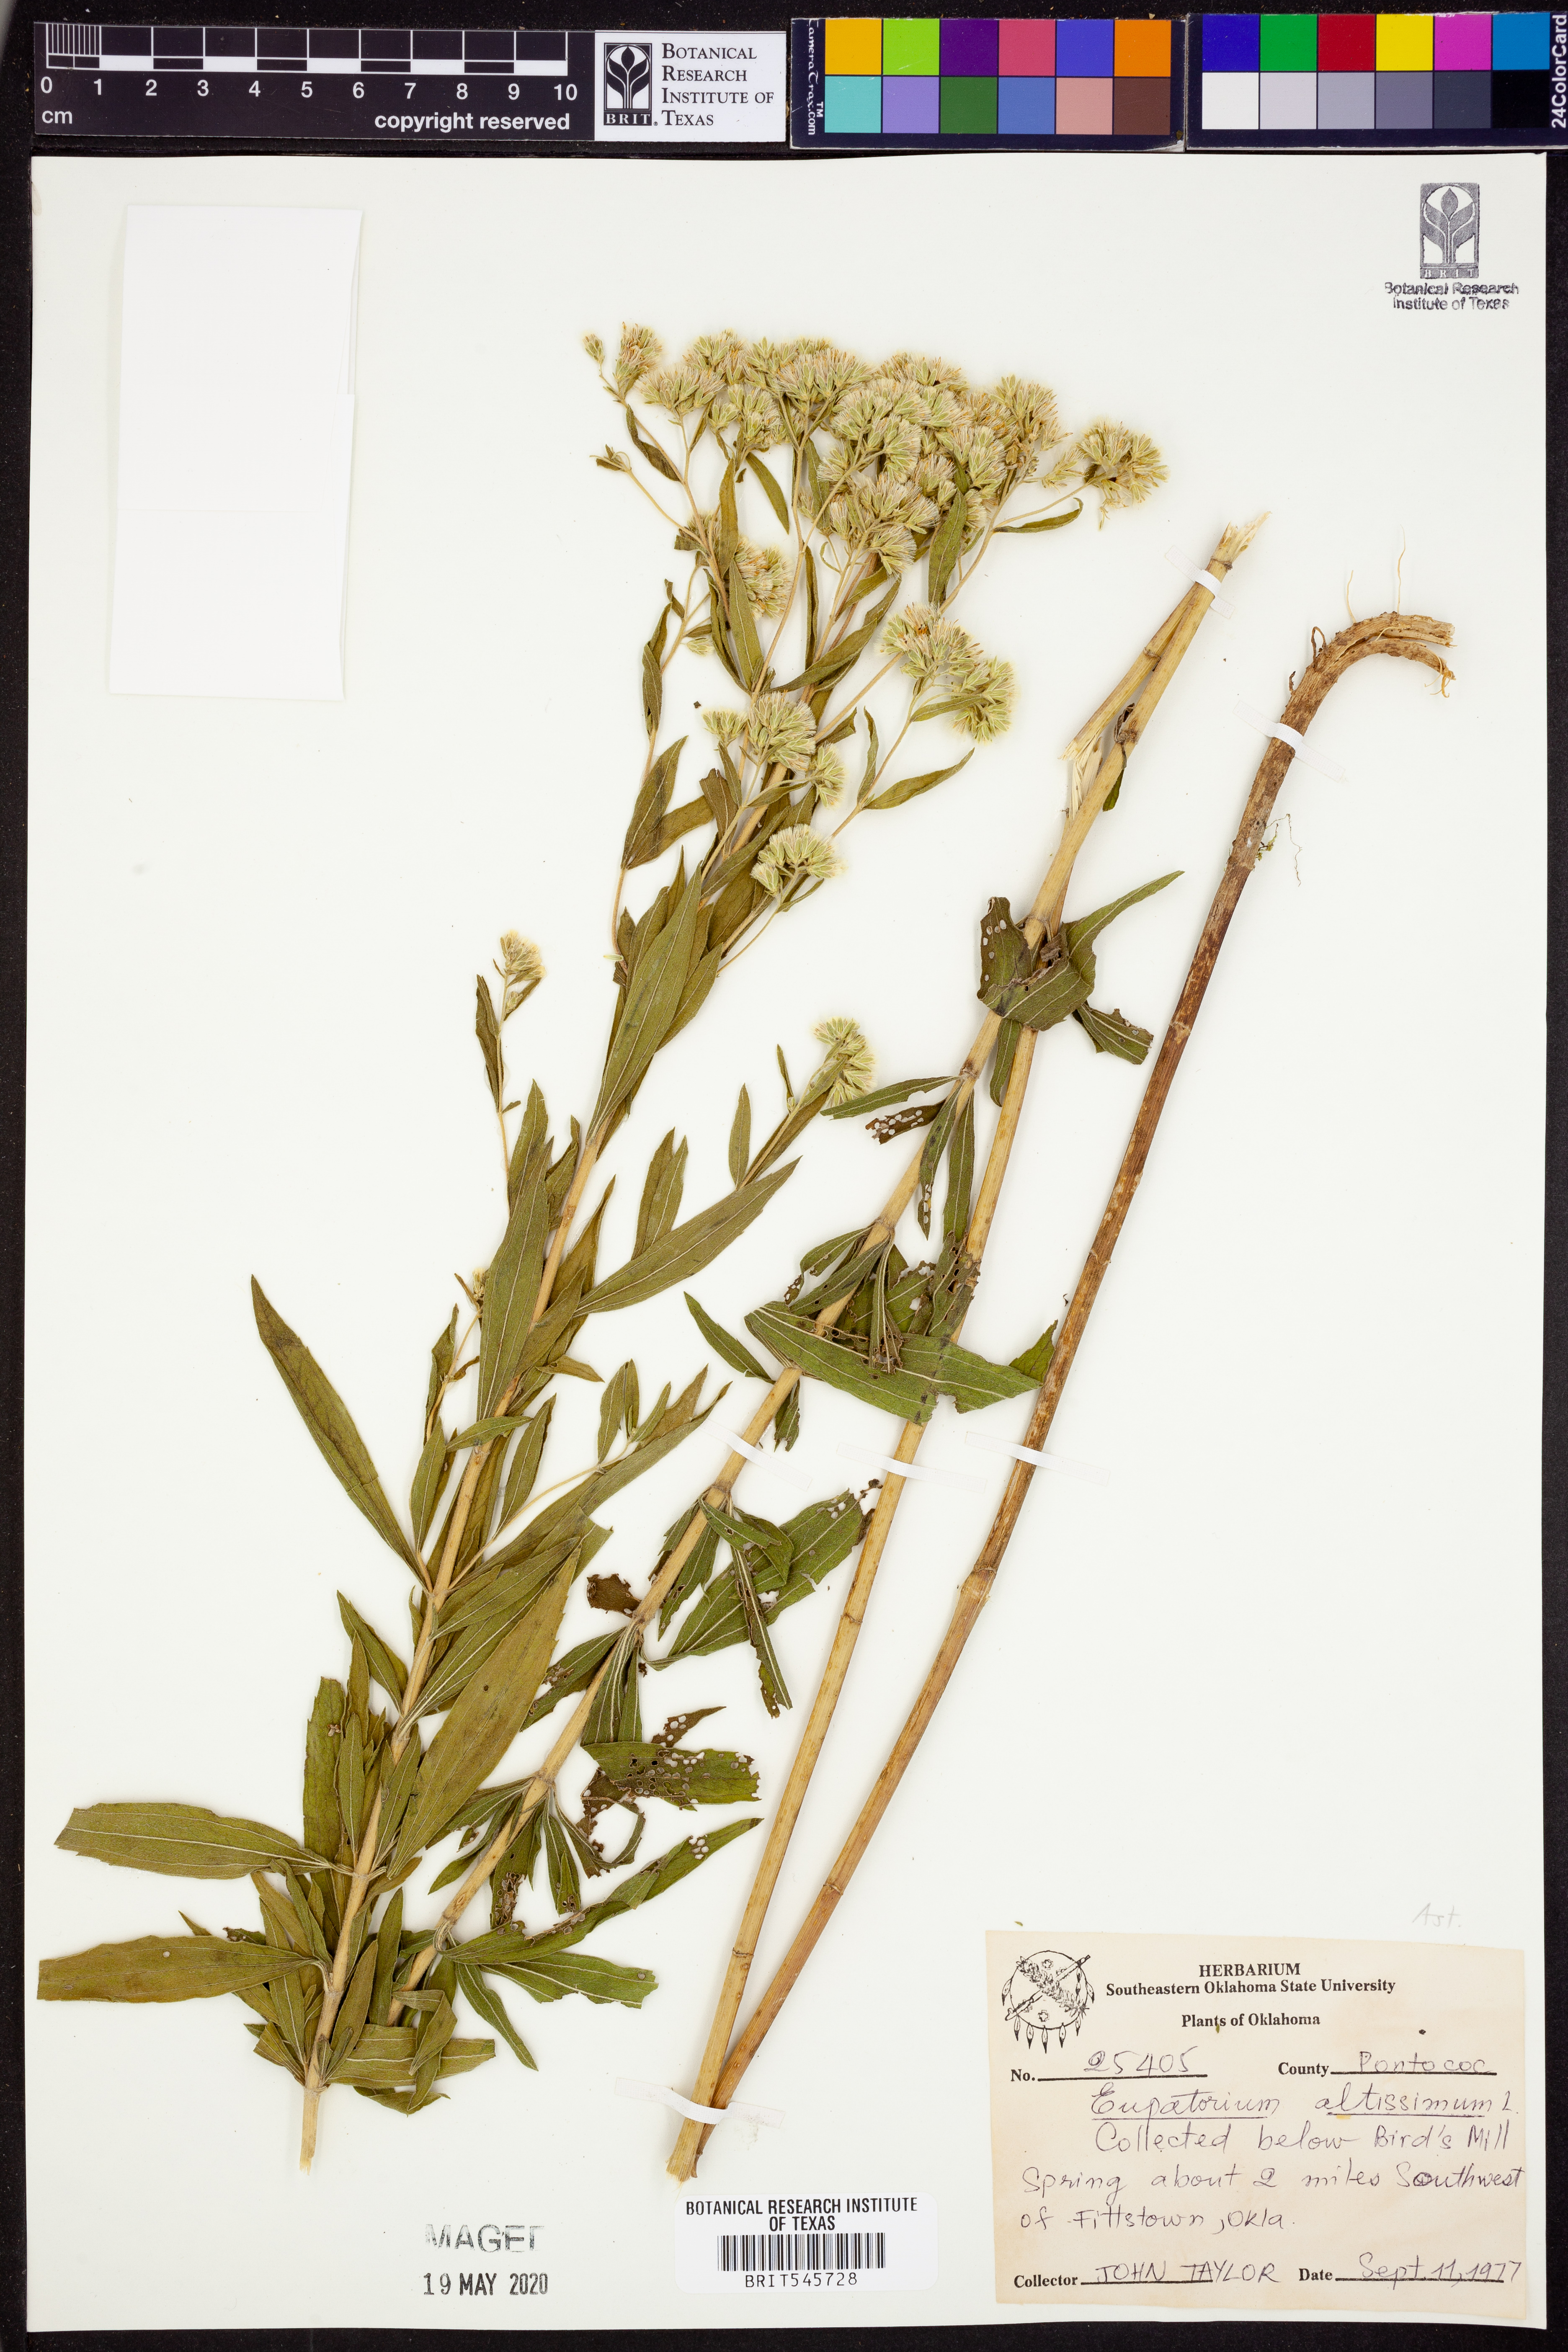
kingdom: Plantae
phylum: Tracheophyta
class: Magnoliopsida
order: Asterales
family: Asteraceae
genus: Eupatorium
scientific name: Eupatorium altissimum
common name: Tall thoroughwort
